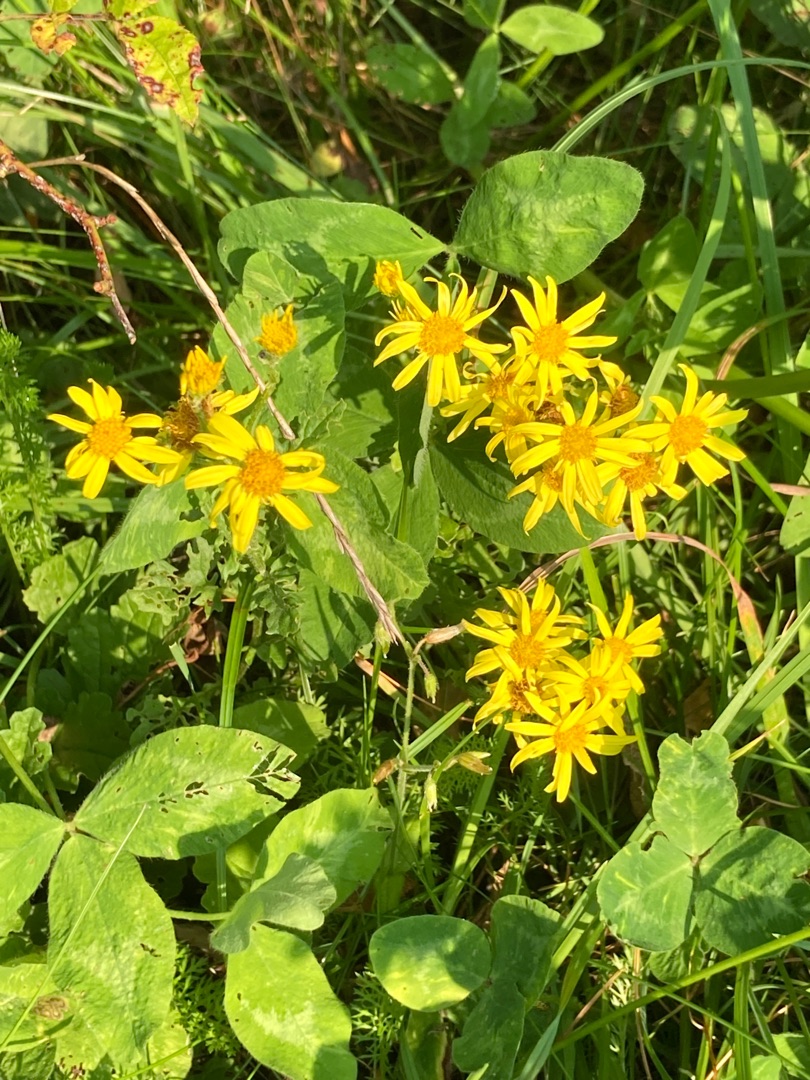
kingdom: Plantae
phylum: Tracheophyta
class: Magnoliopsida
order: Asterales
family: Asteraceae
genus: Jacobaea
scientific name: Jacobaea vulgaris
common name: Eng-brandbæger
